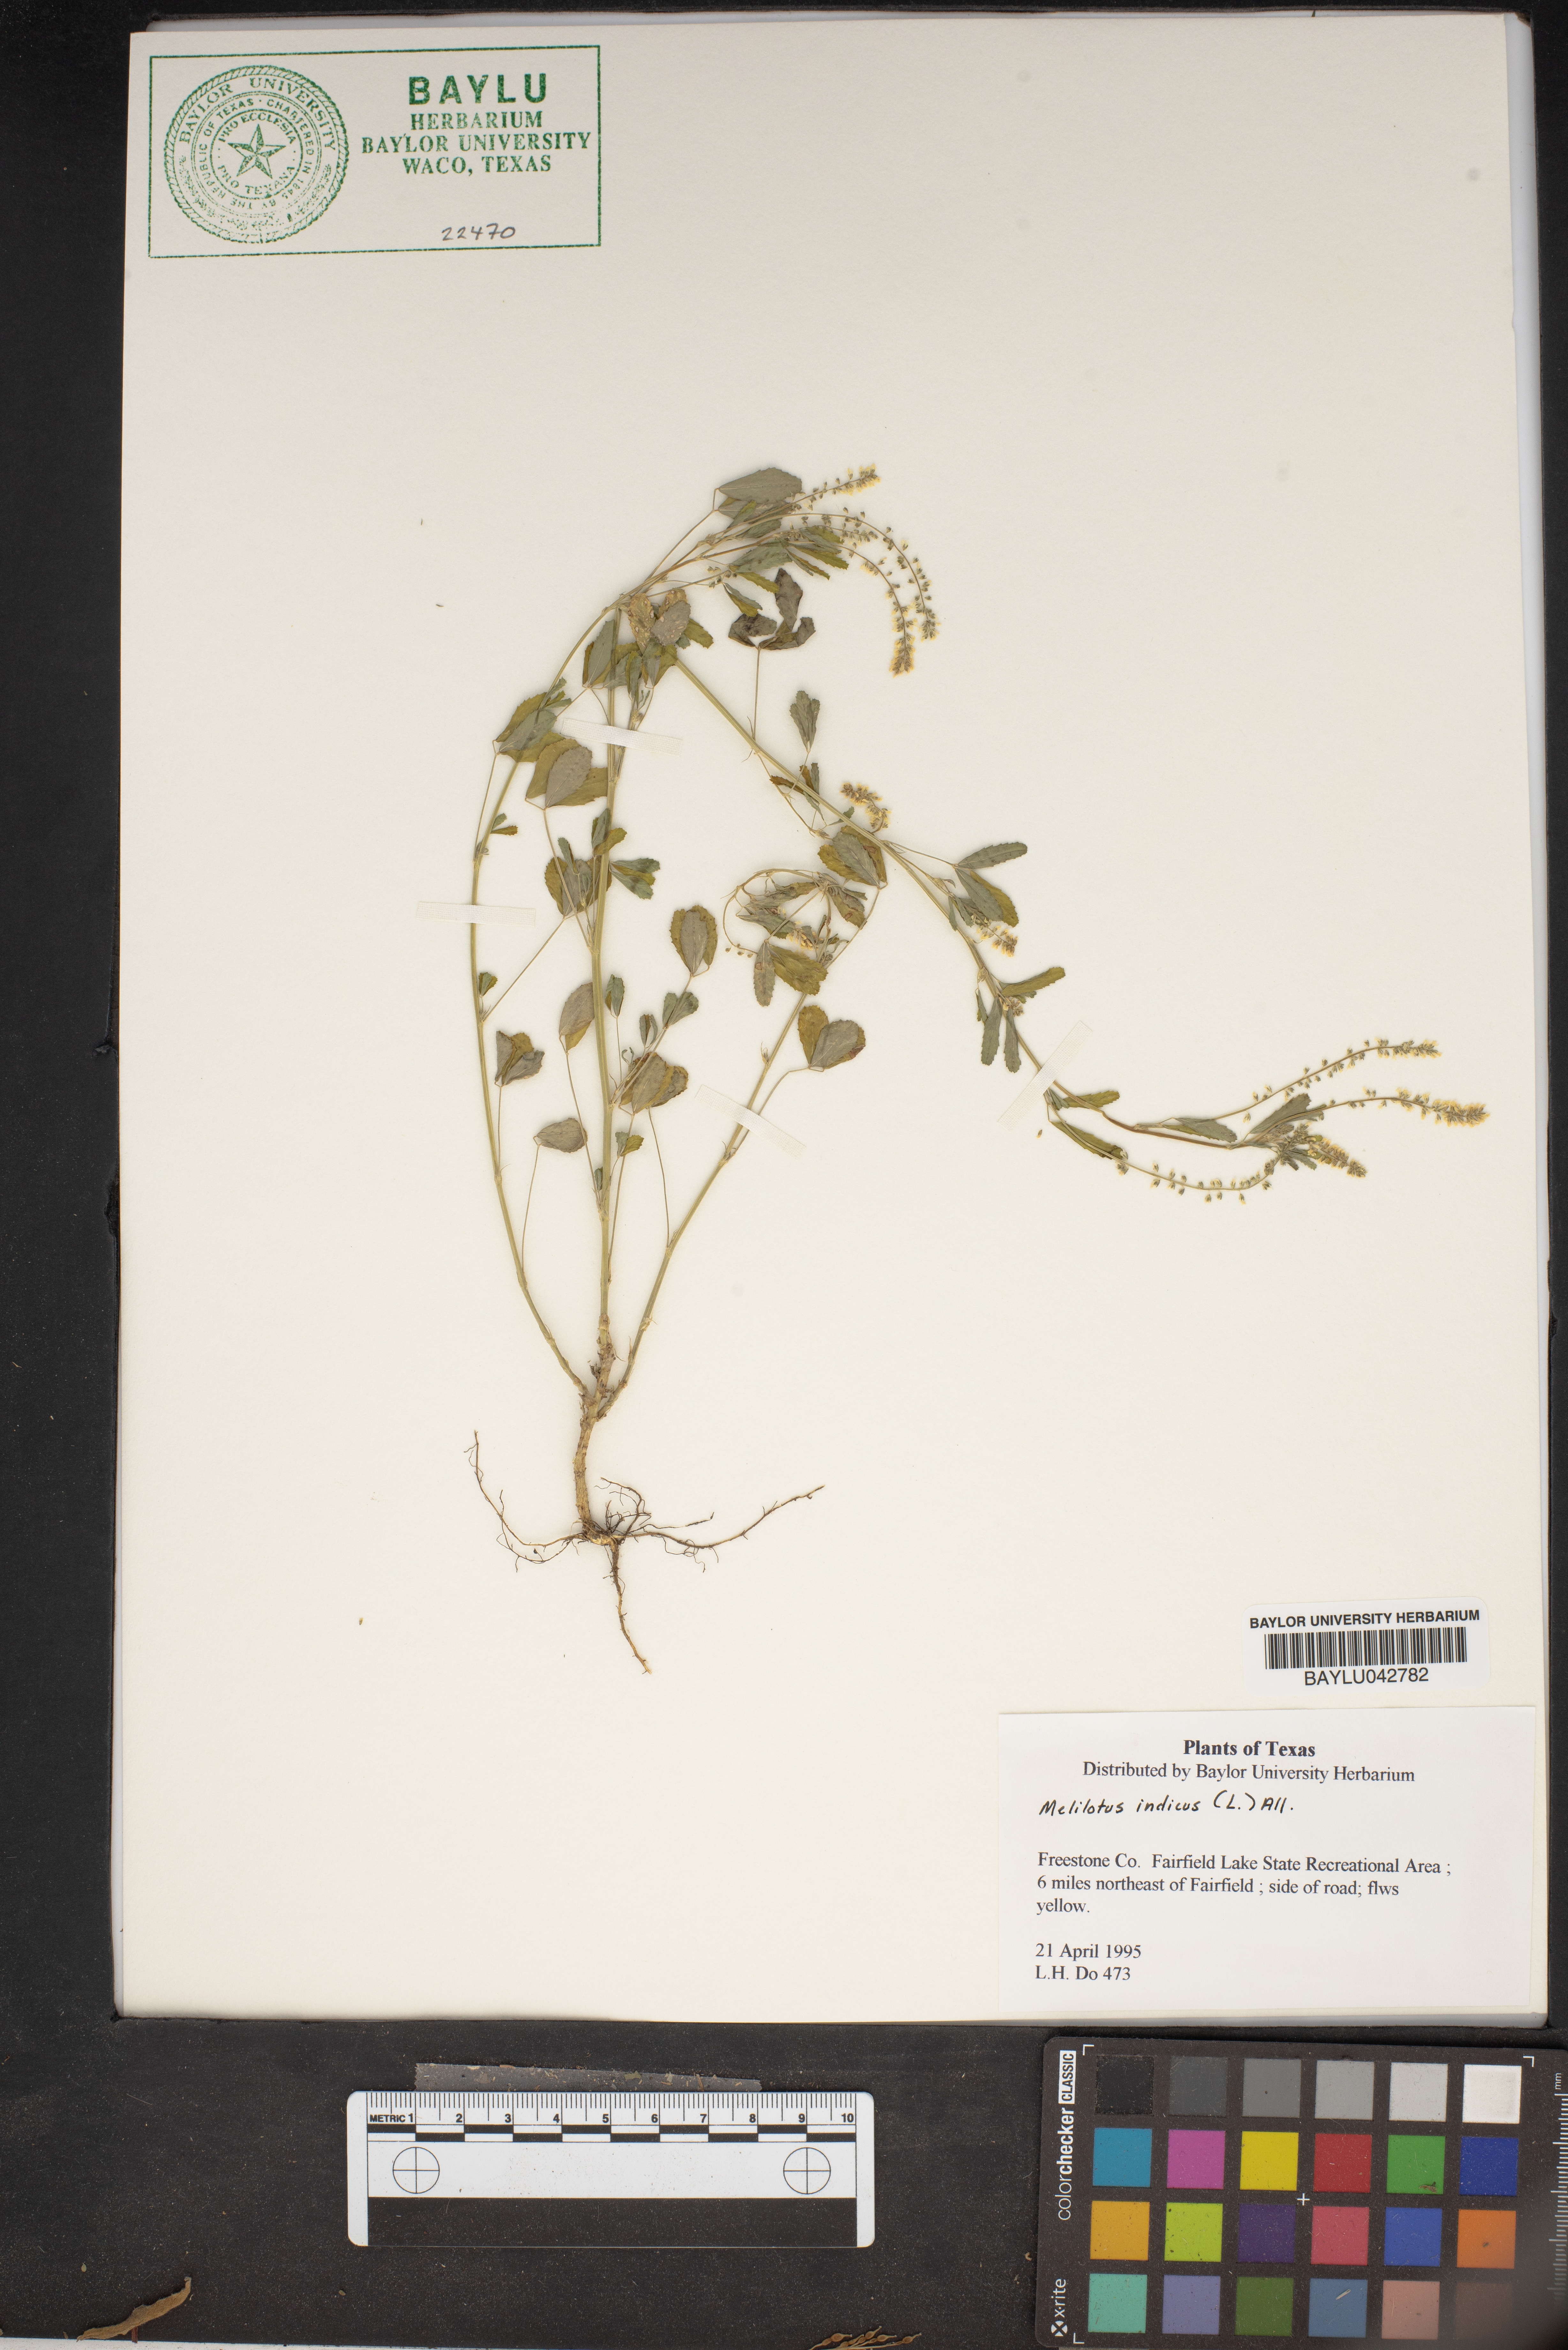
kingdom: Plantae
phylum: Tracheophyta
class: Magnoliopsida
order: Fabales
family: Fabaceae
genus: Melilotus
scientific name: Melilotus indicus
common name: Small melilot
